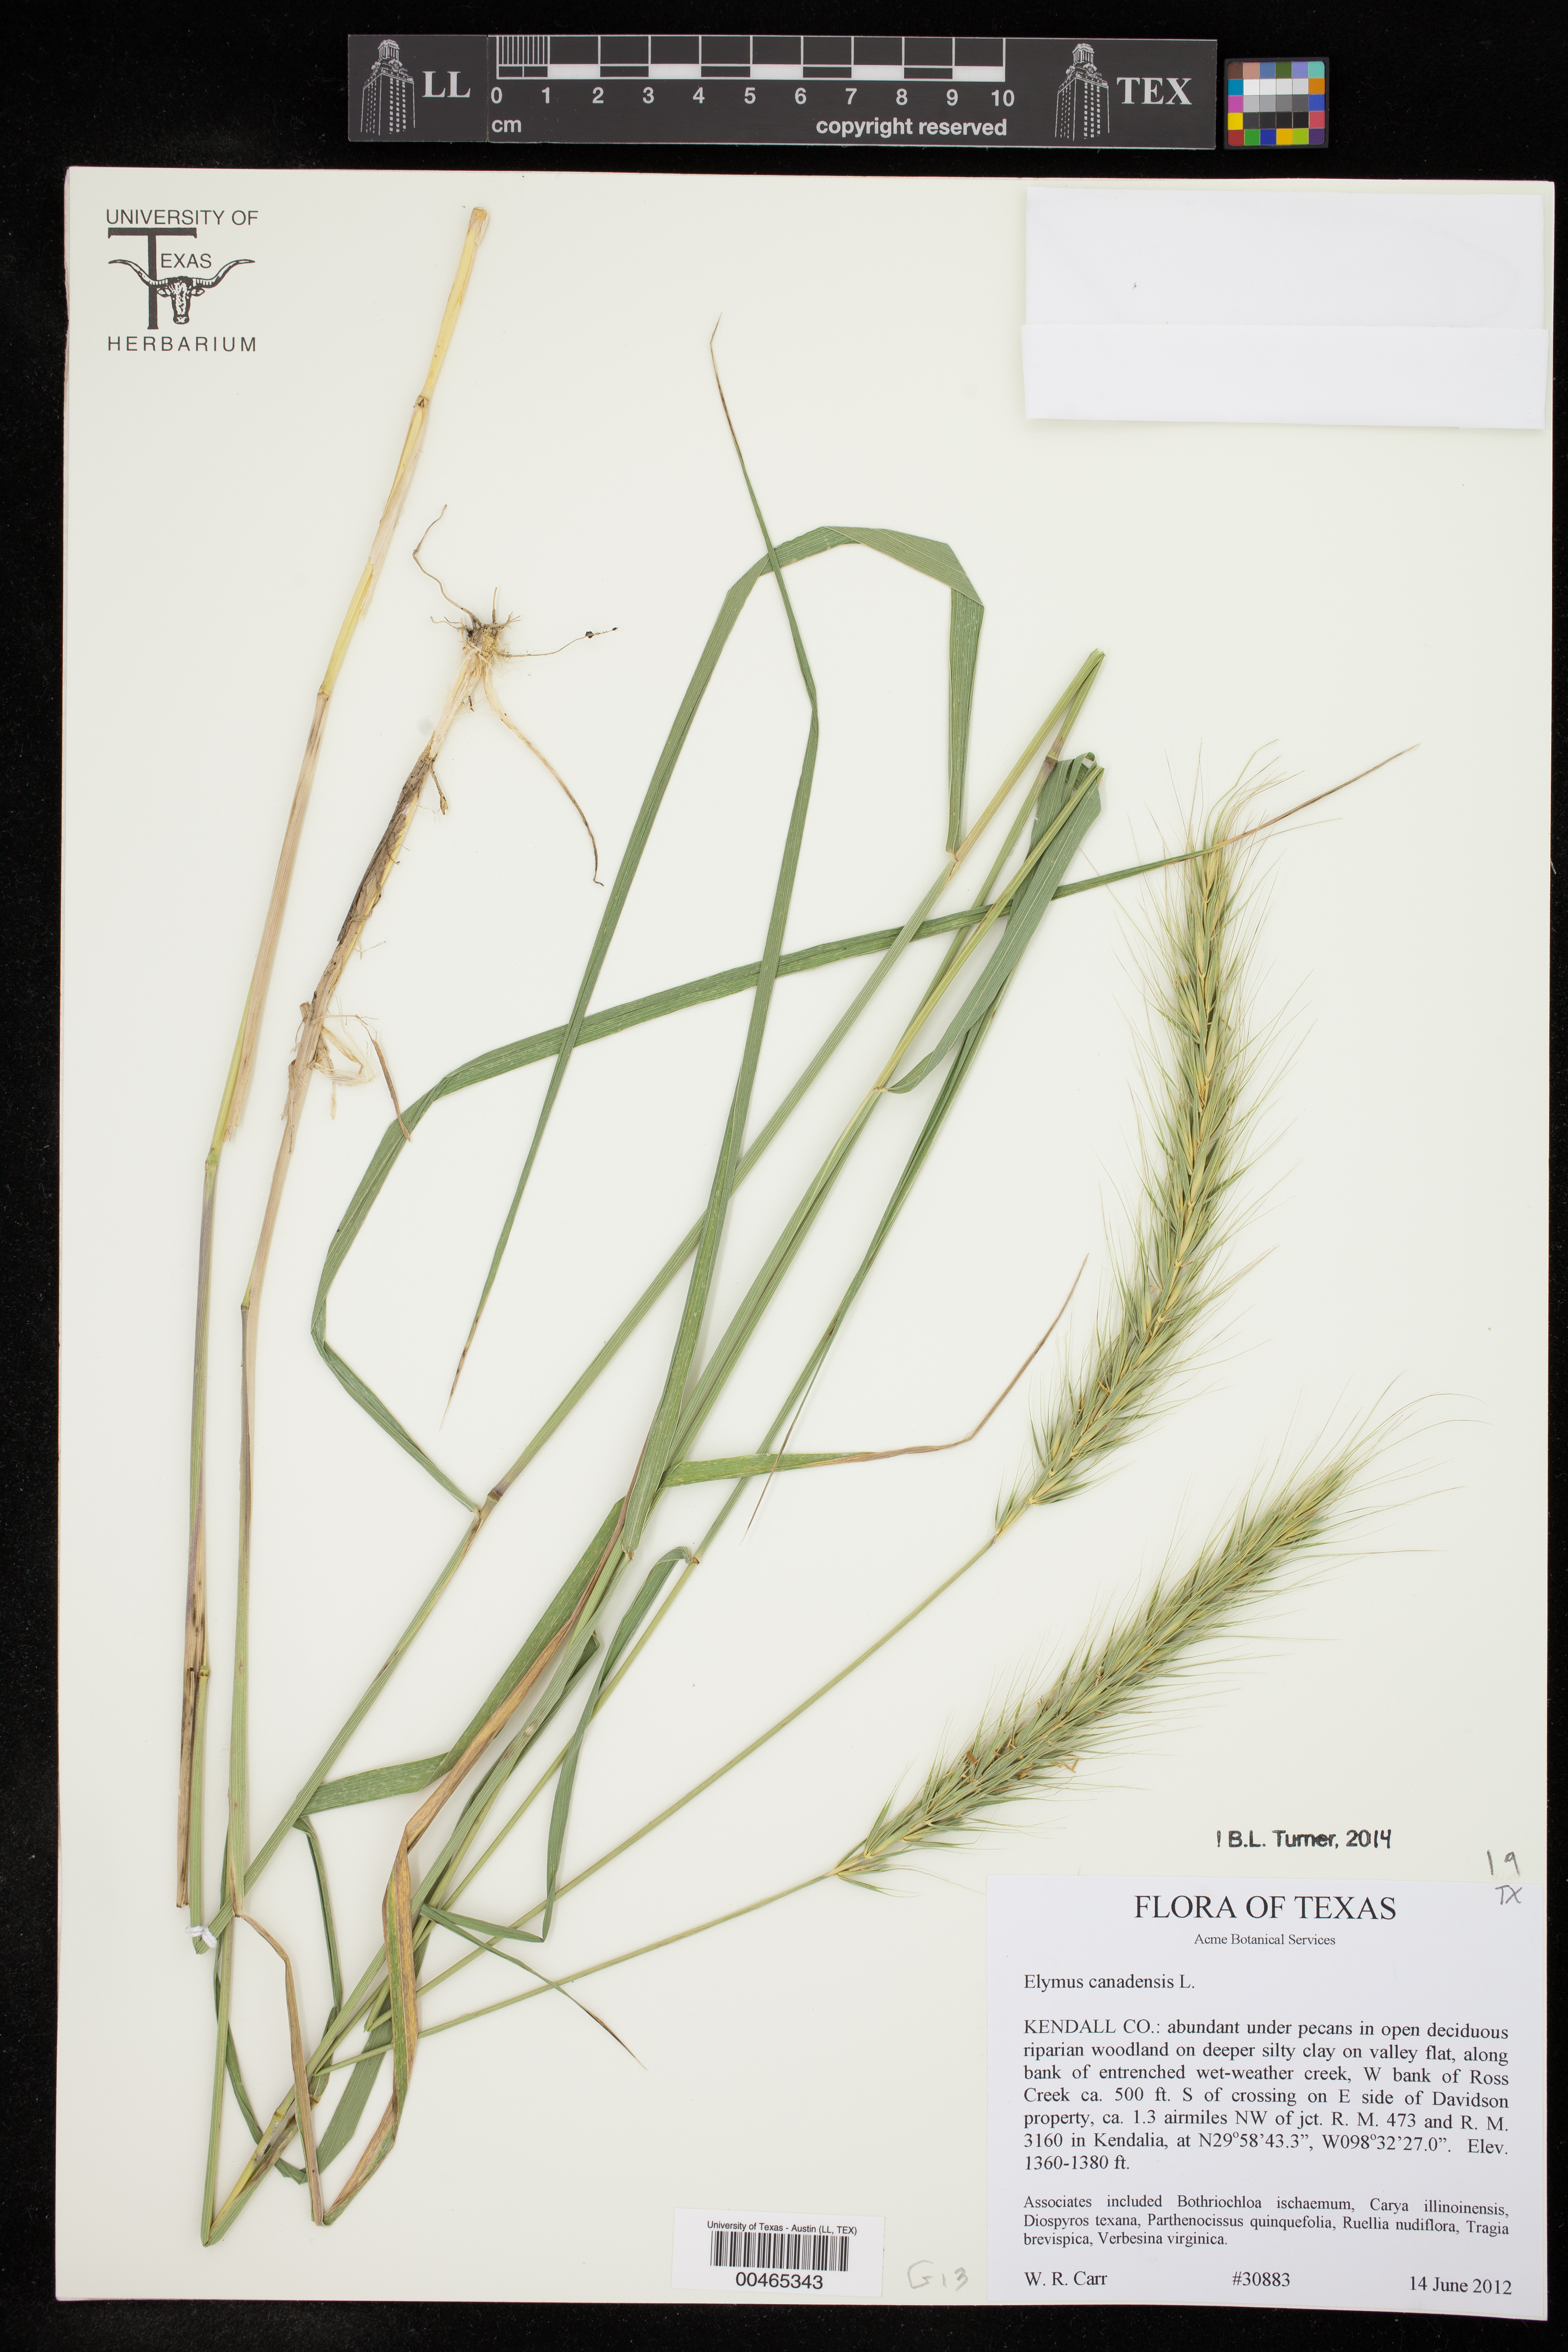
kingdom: Plantae
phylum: Tracheophyta
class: Liliopsida
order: Poales
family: Poaceae
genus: Elymus
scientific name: Elymus canadensis
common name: Canada wild rye
